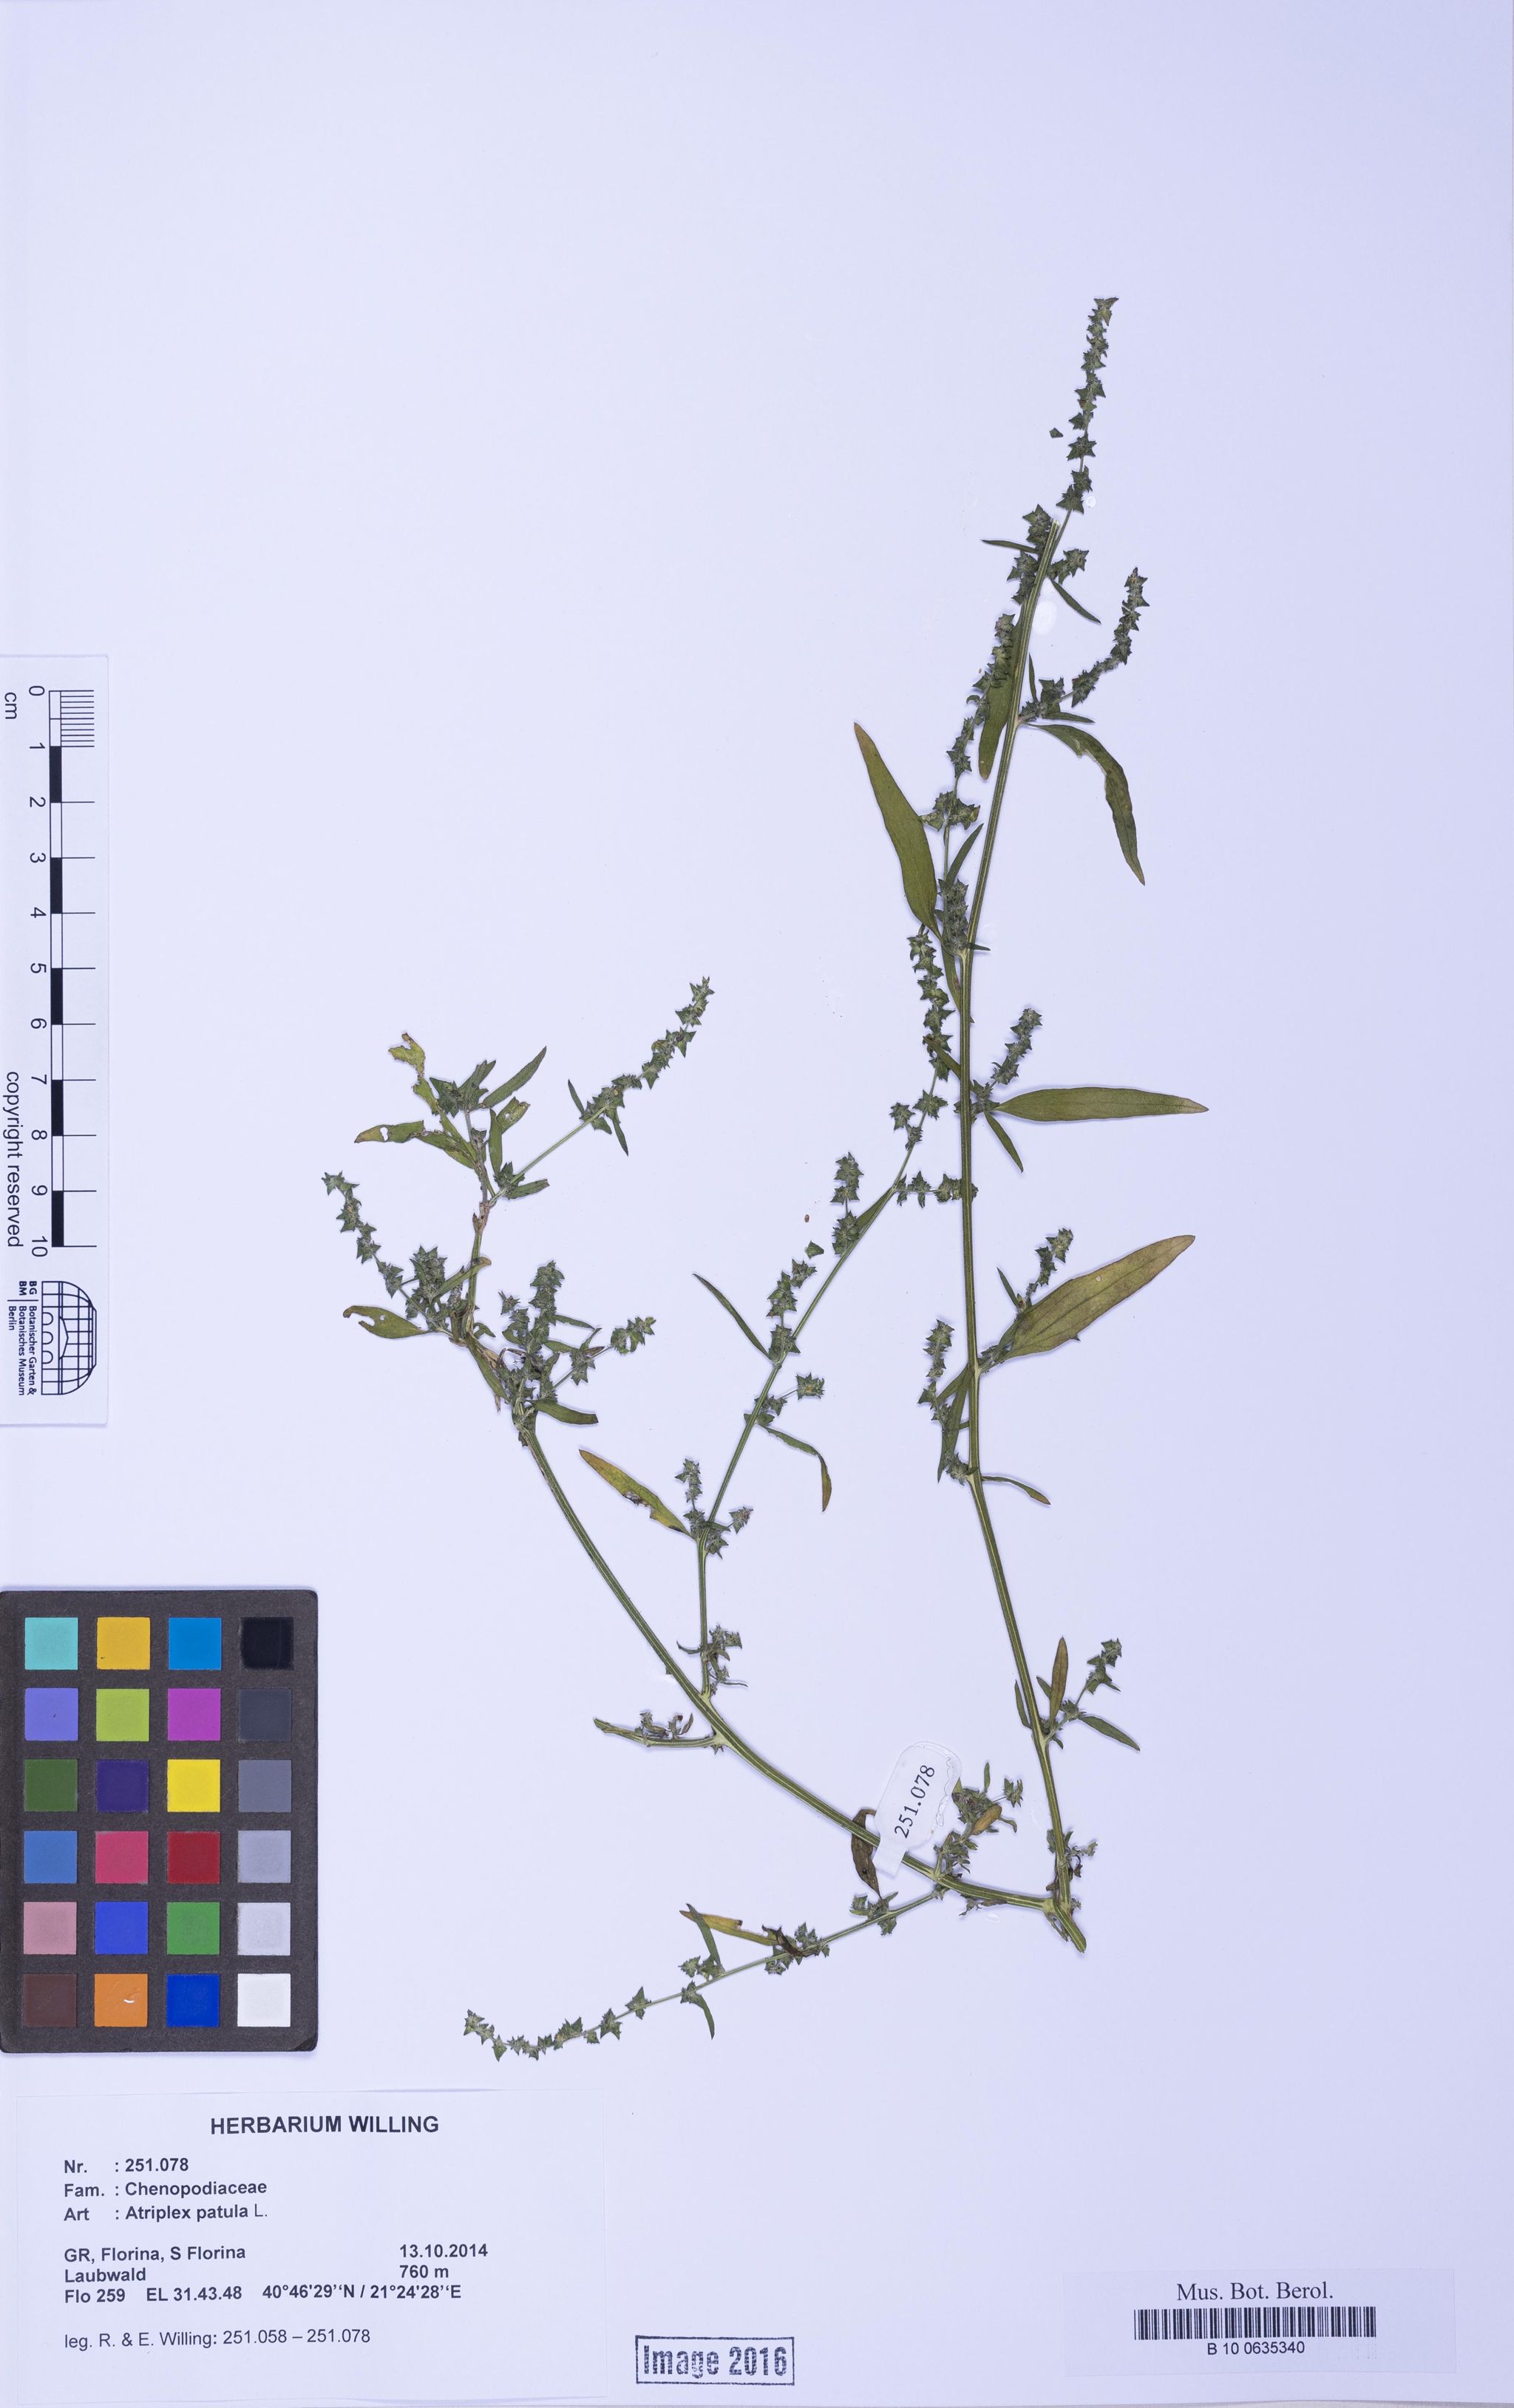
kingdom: Plantae
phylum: Tracheophyta
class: Magnoliopsida
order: Caryophyllales
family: Amaranthaceae
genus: Atriplex
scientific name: Atriplex patula
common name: Common orache
